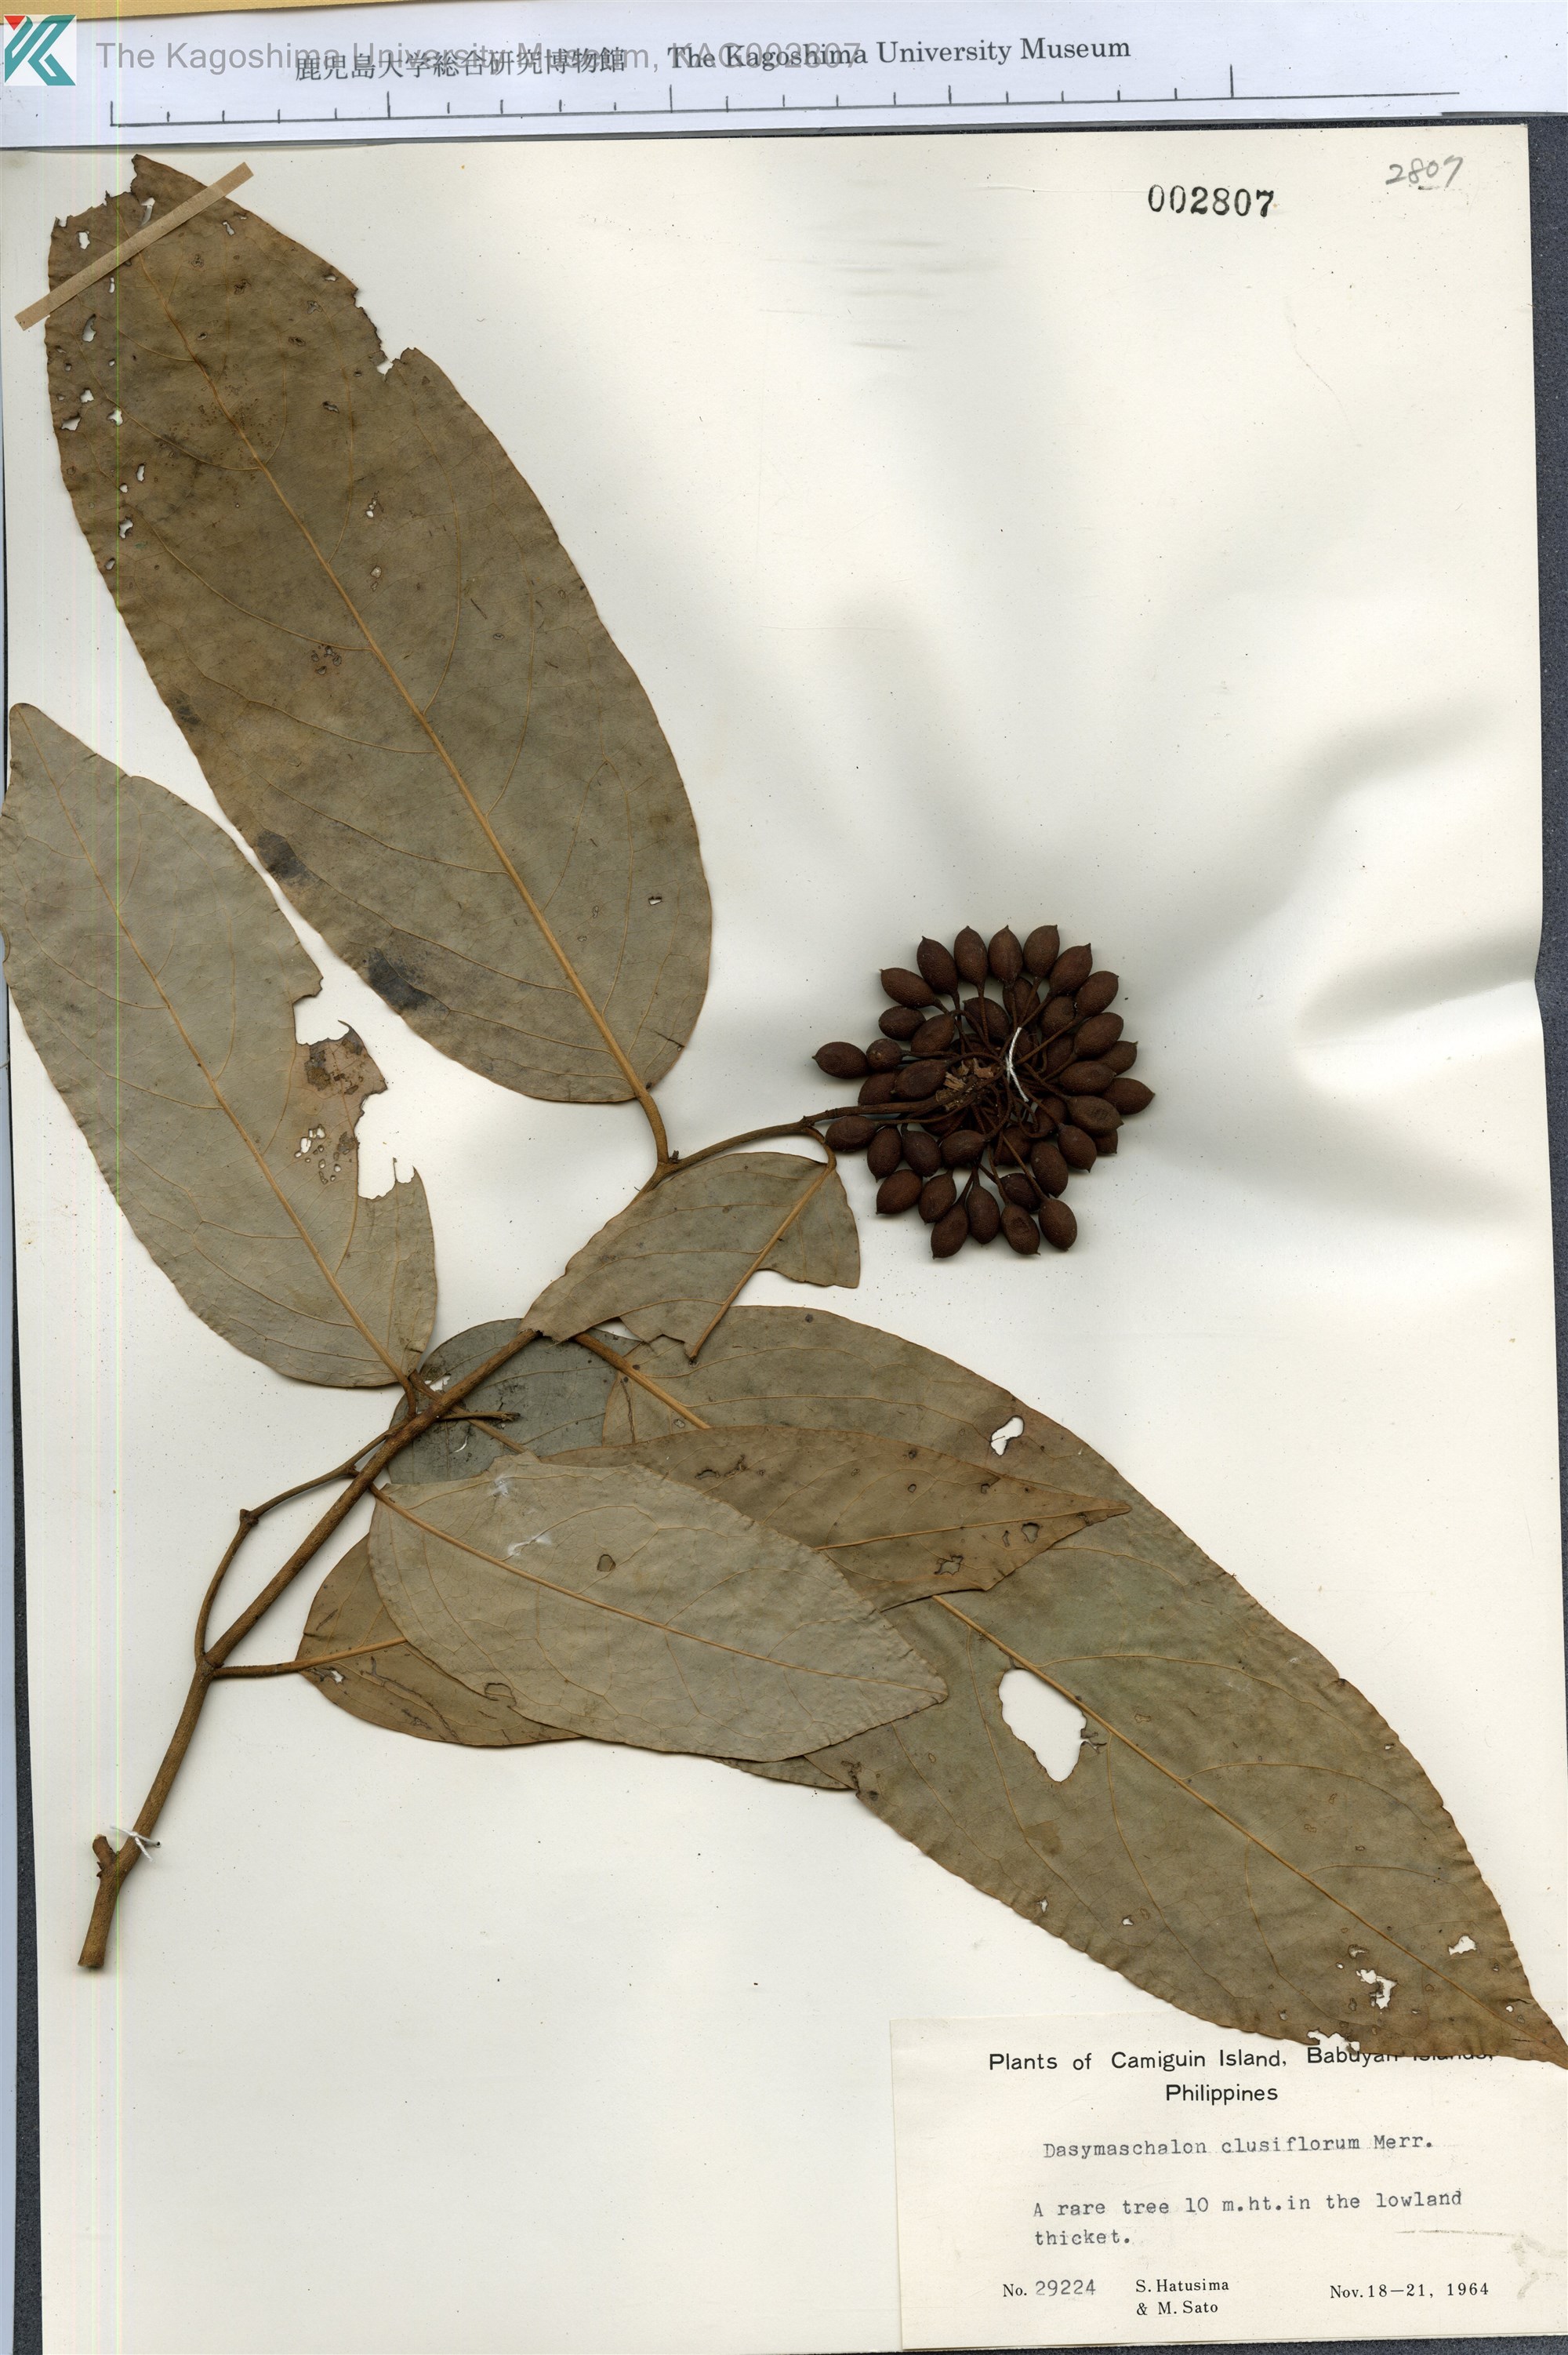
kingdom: Plantae
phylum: Tracheophyta
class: Magnoliopsida
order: Magnoliales
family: Annonaceae
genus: Dasymaschalon
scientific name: Dasymaschalon clusiflorum
